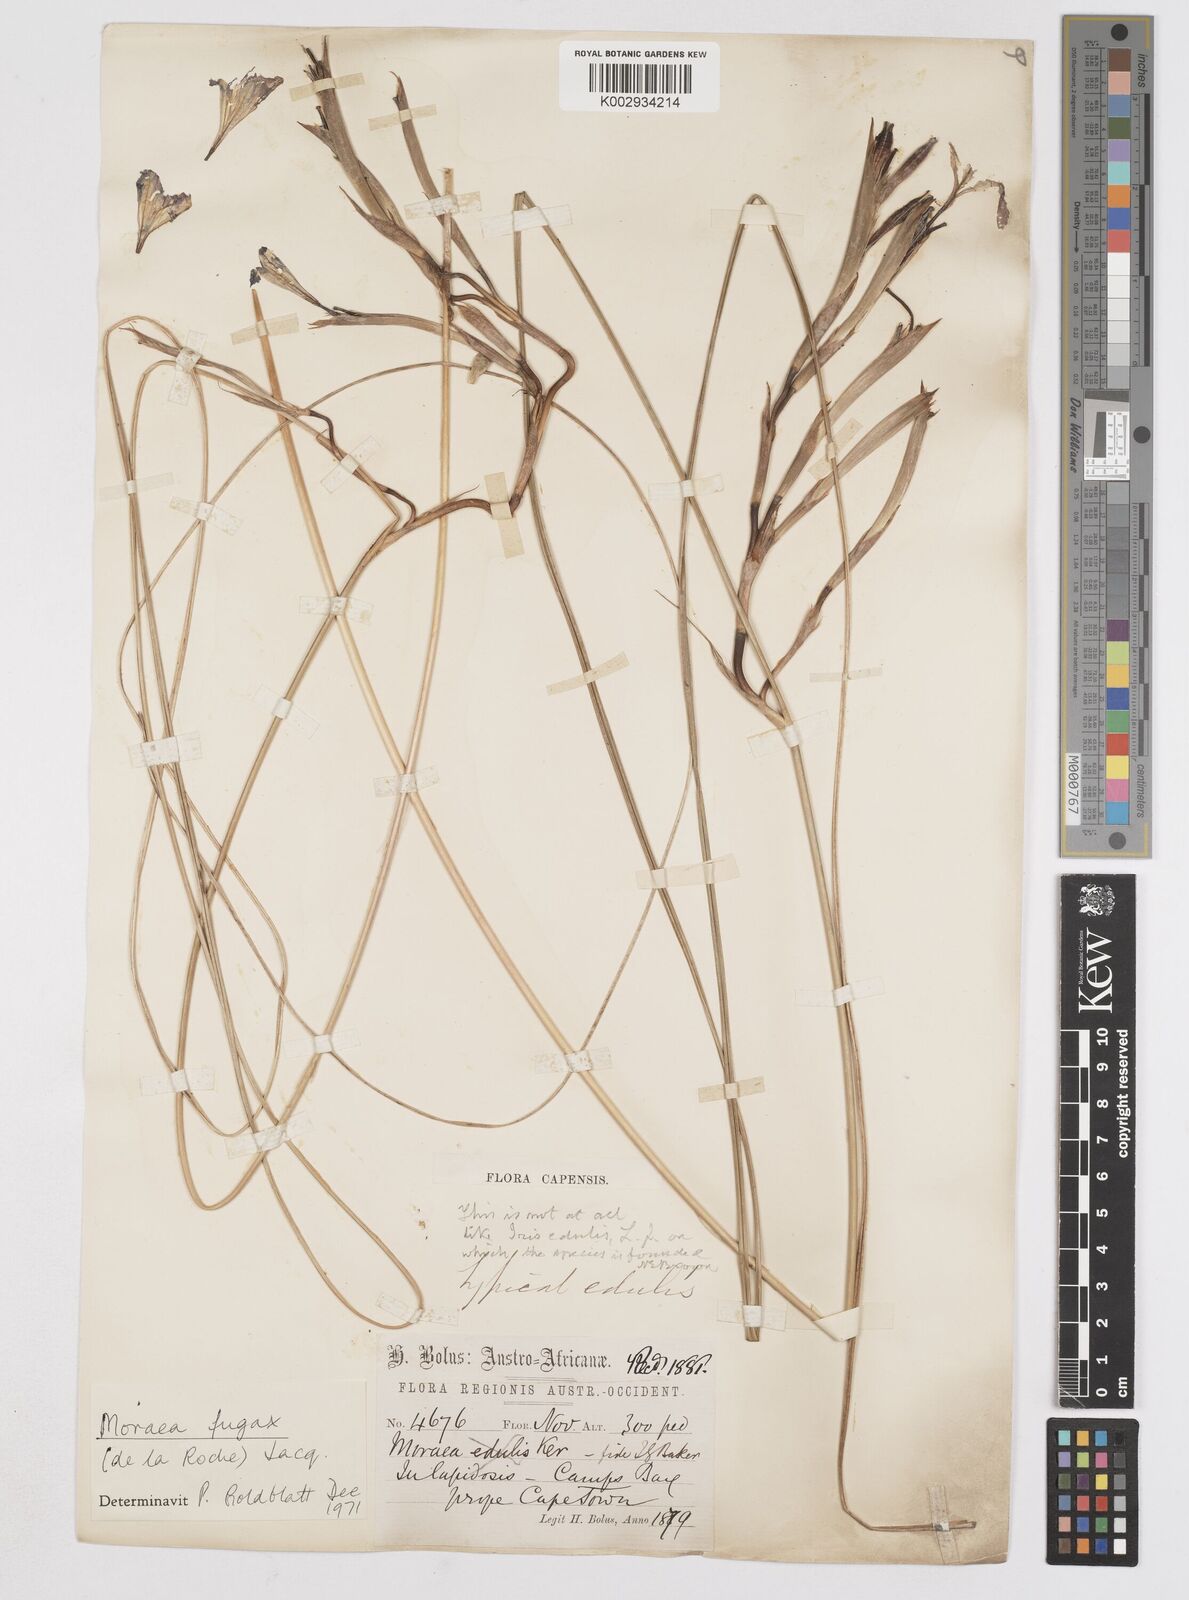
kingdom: Plantae
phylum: Tracheophyta
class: Liliopsida
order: Asparagales
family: Iridaceae
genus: Moraea
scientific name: Moraea fugax
